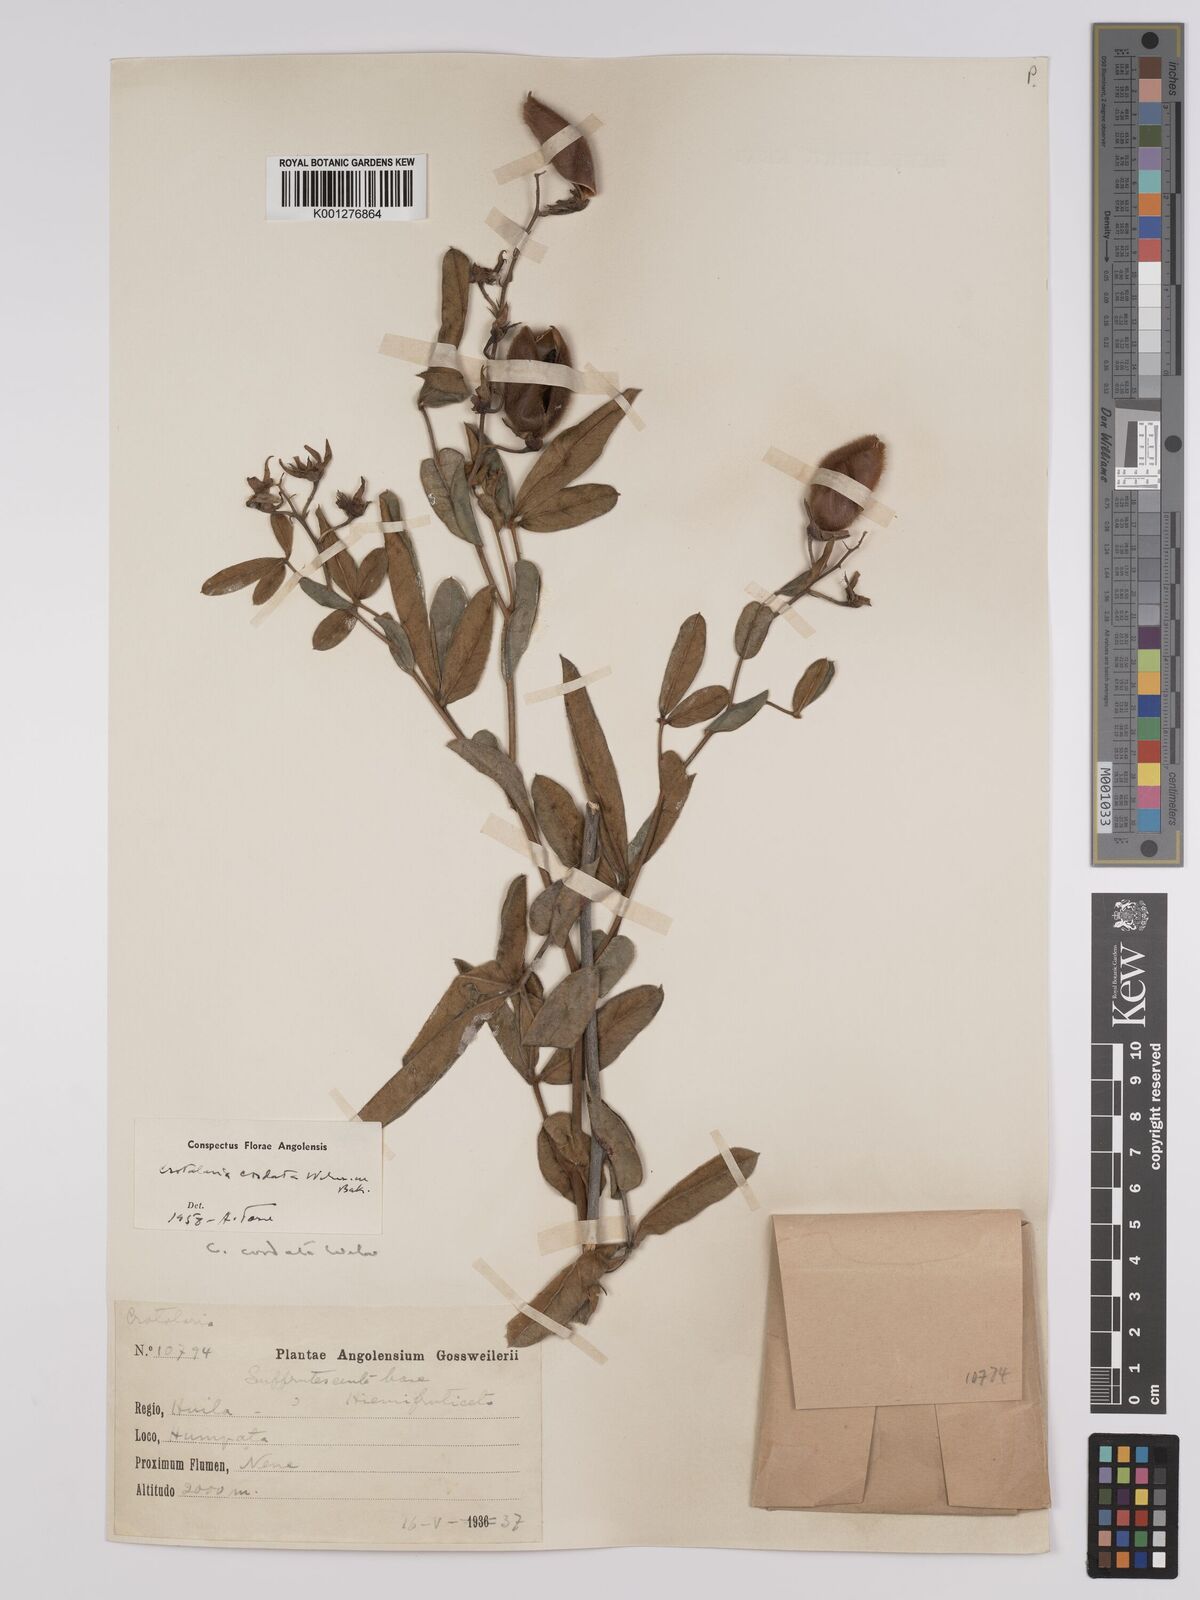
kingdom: Plantae
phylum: Tracheophyta
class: Magnoliopsida
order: Fabales
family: Fabaceae
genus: Crotalaria
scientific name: Crotalaria cordata
